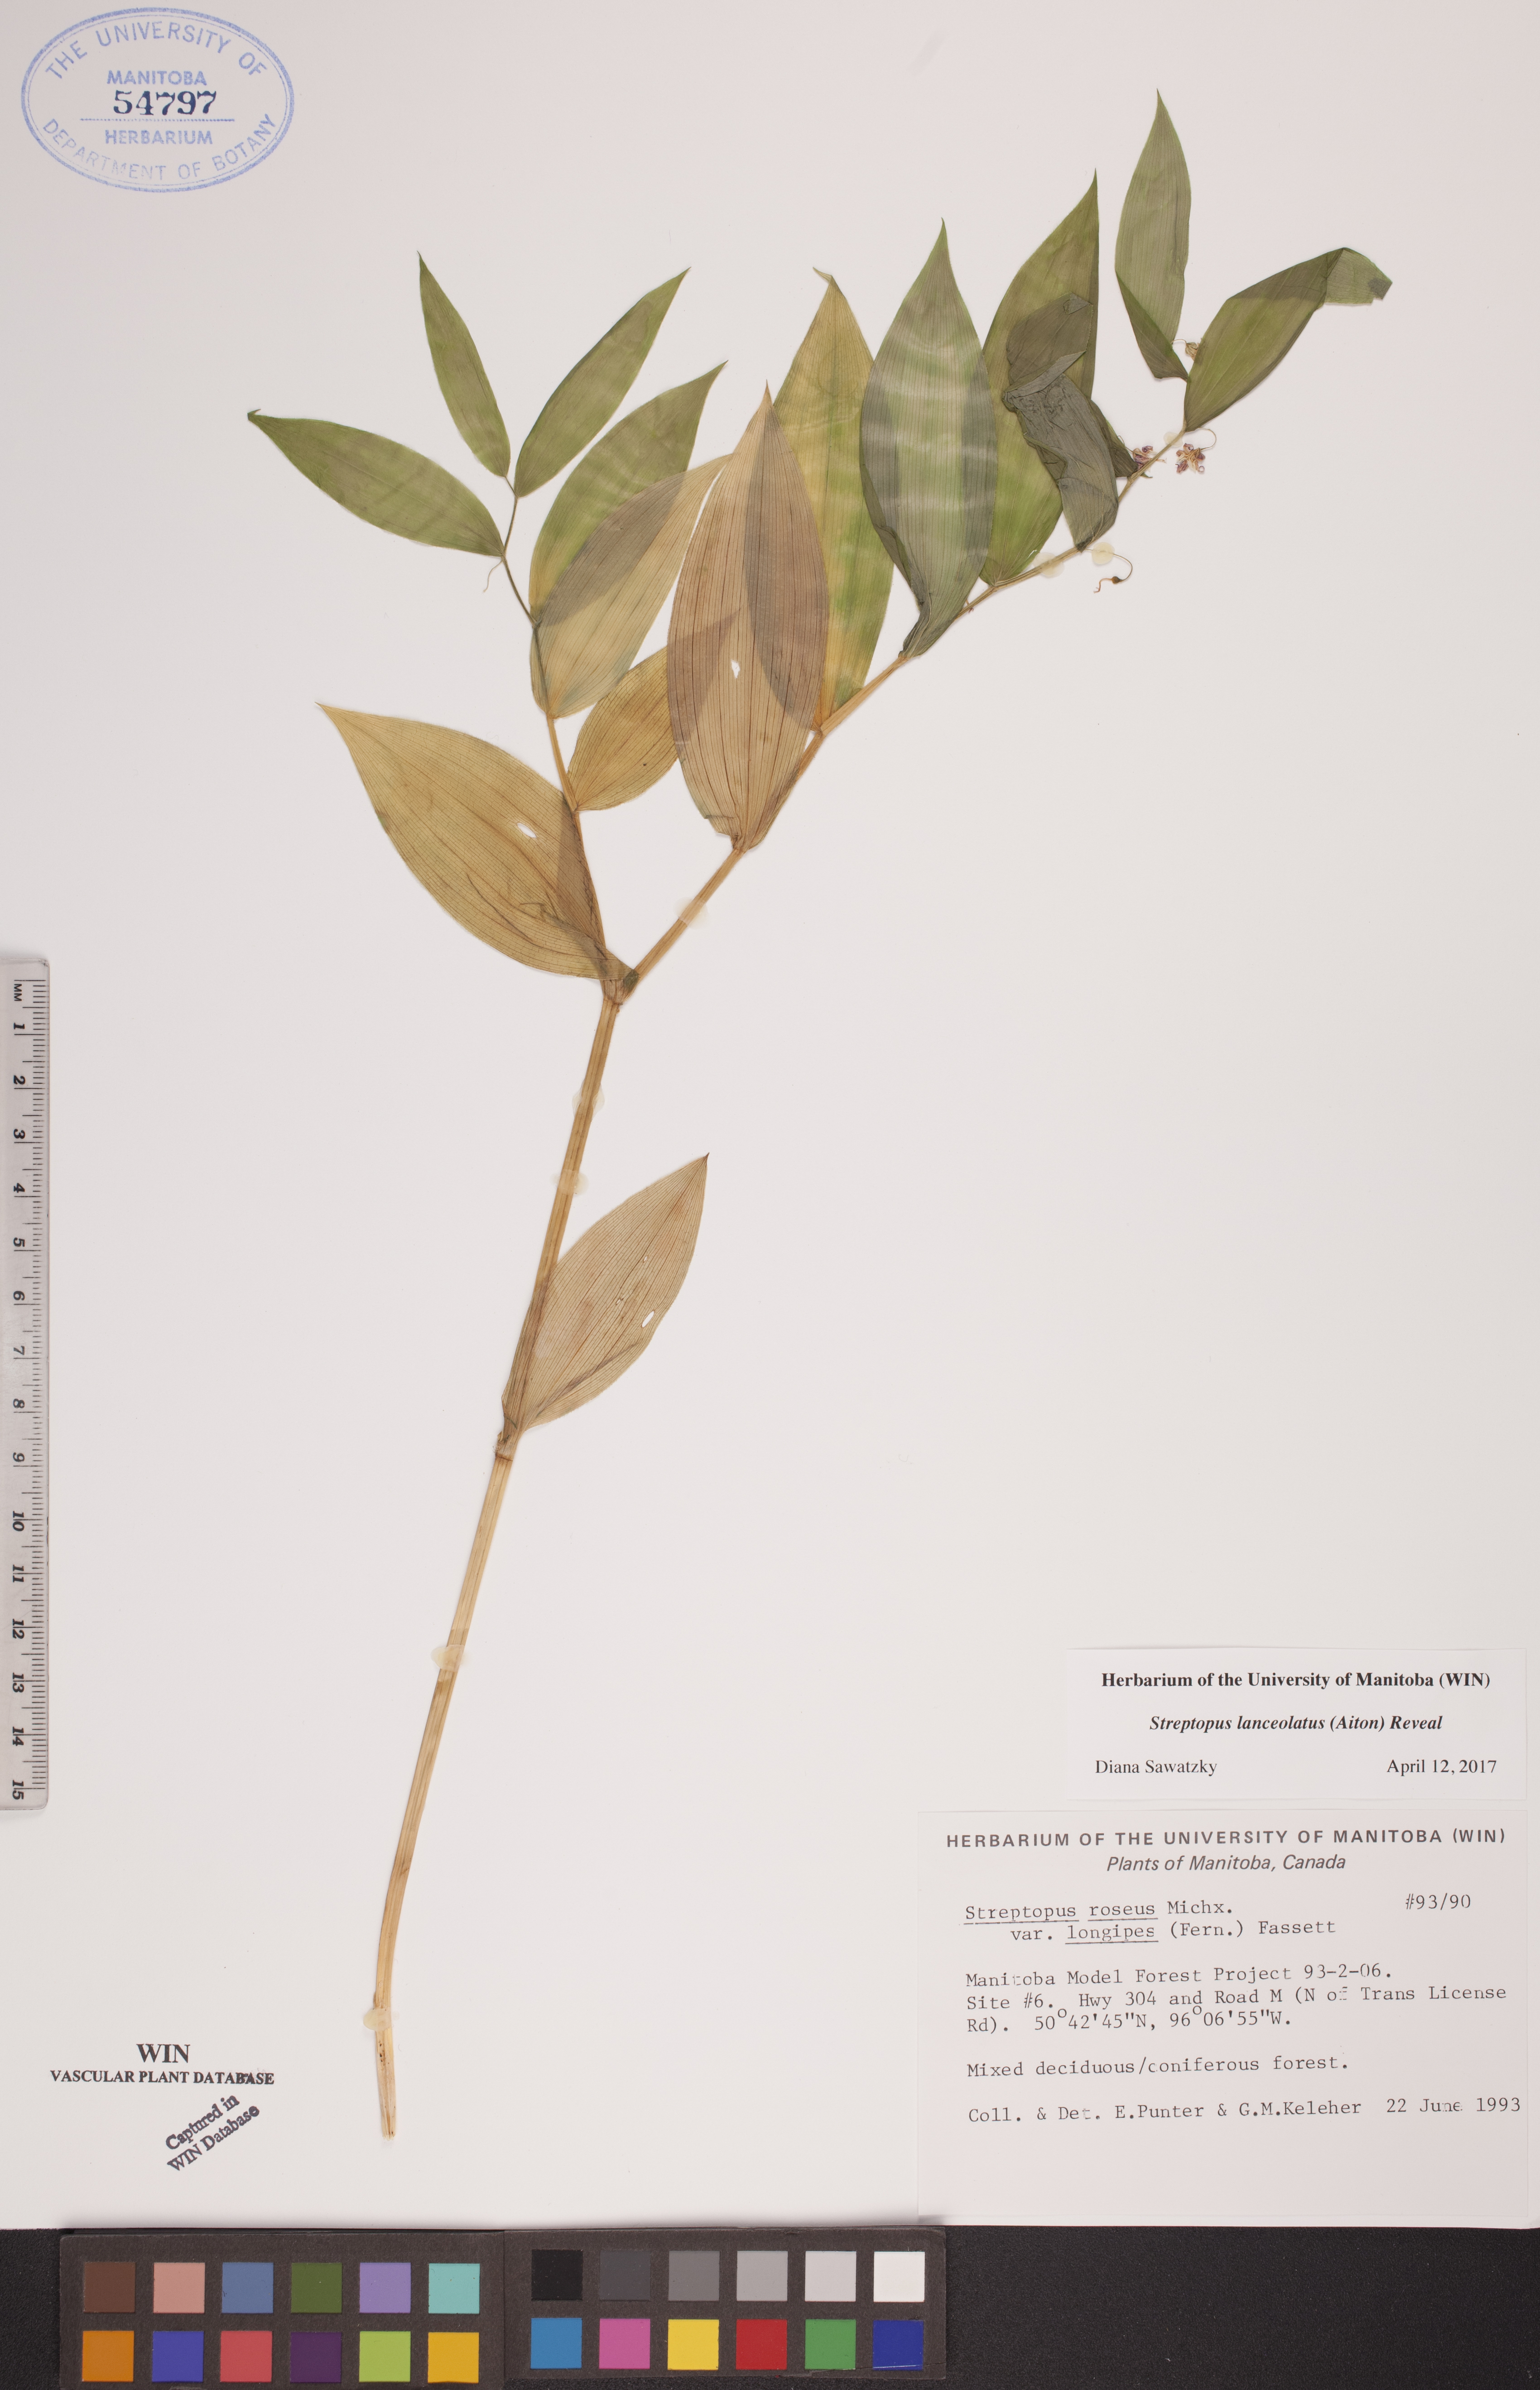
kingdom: Plantae
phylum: Tracheophyta
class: Liliopsida
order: Liliales
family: Liliaceae
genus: Streptopus
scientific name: Streptopus lanceolatus
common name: Rose mandarin
